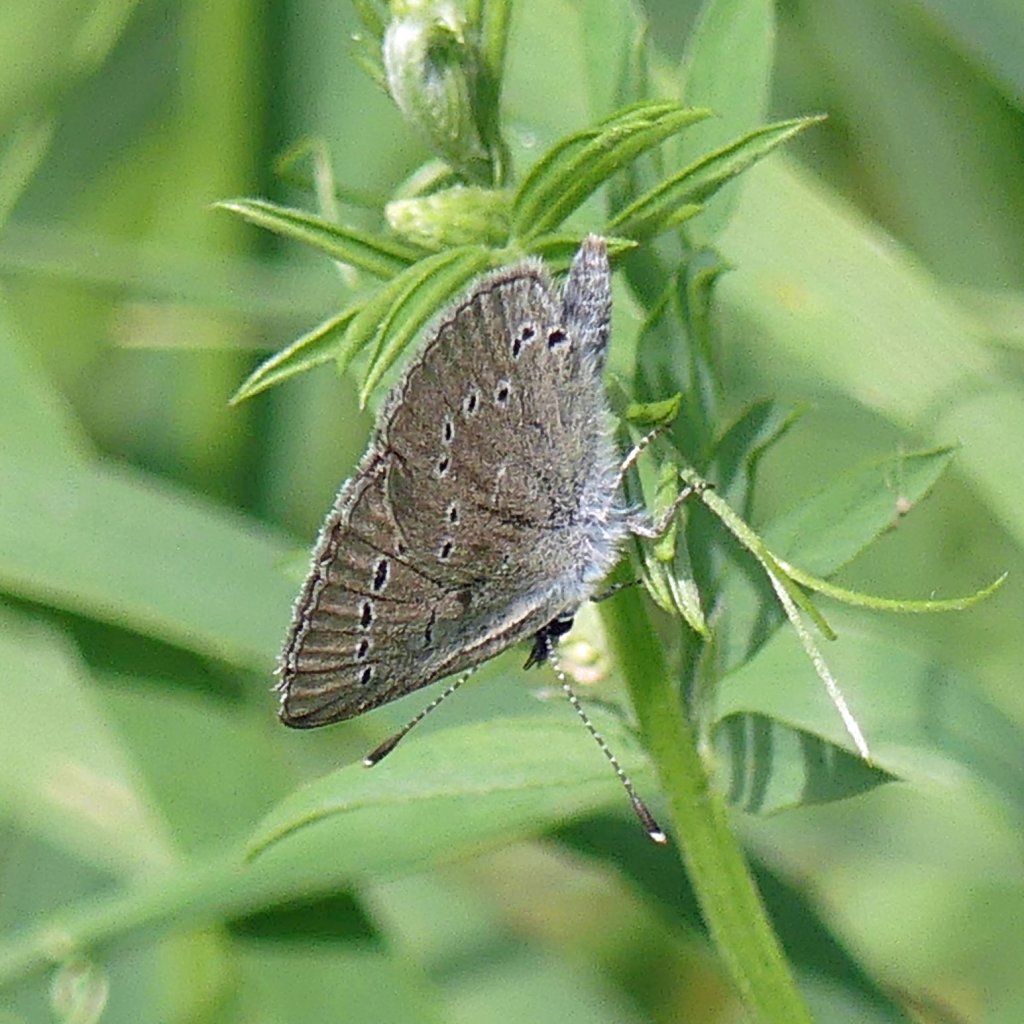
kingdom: Animalia
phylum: Arthropoda
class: Insecta
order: Lepidoptera
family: Lycaenidae
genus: Glaucopsyche
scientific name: Glaucopsyche lygdamus
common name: Silvery Blue
